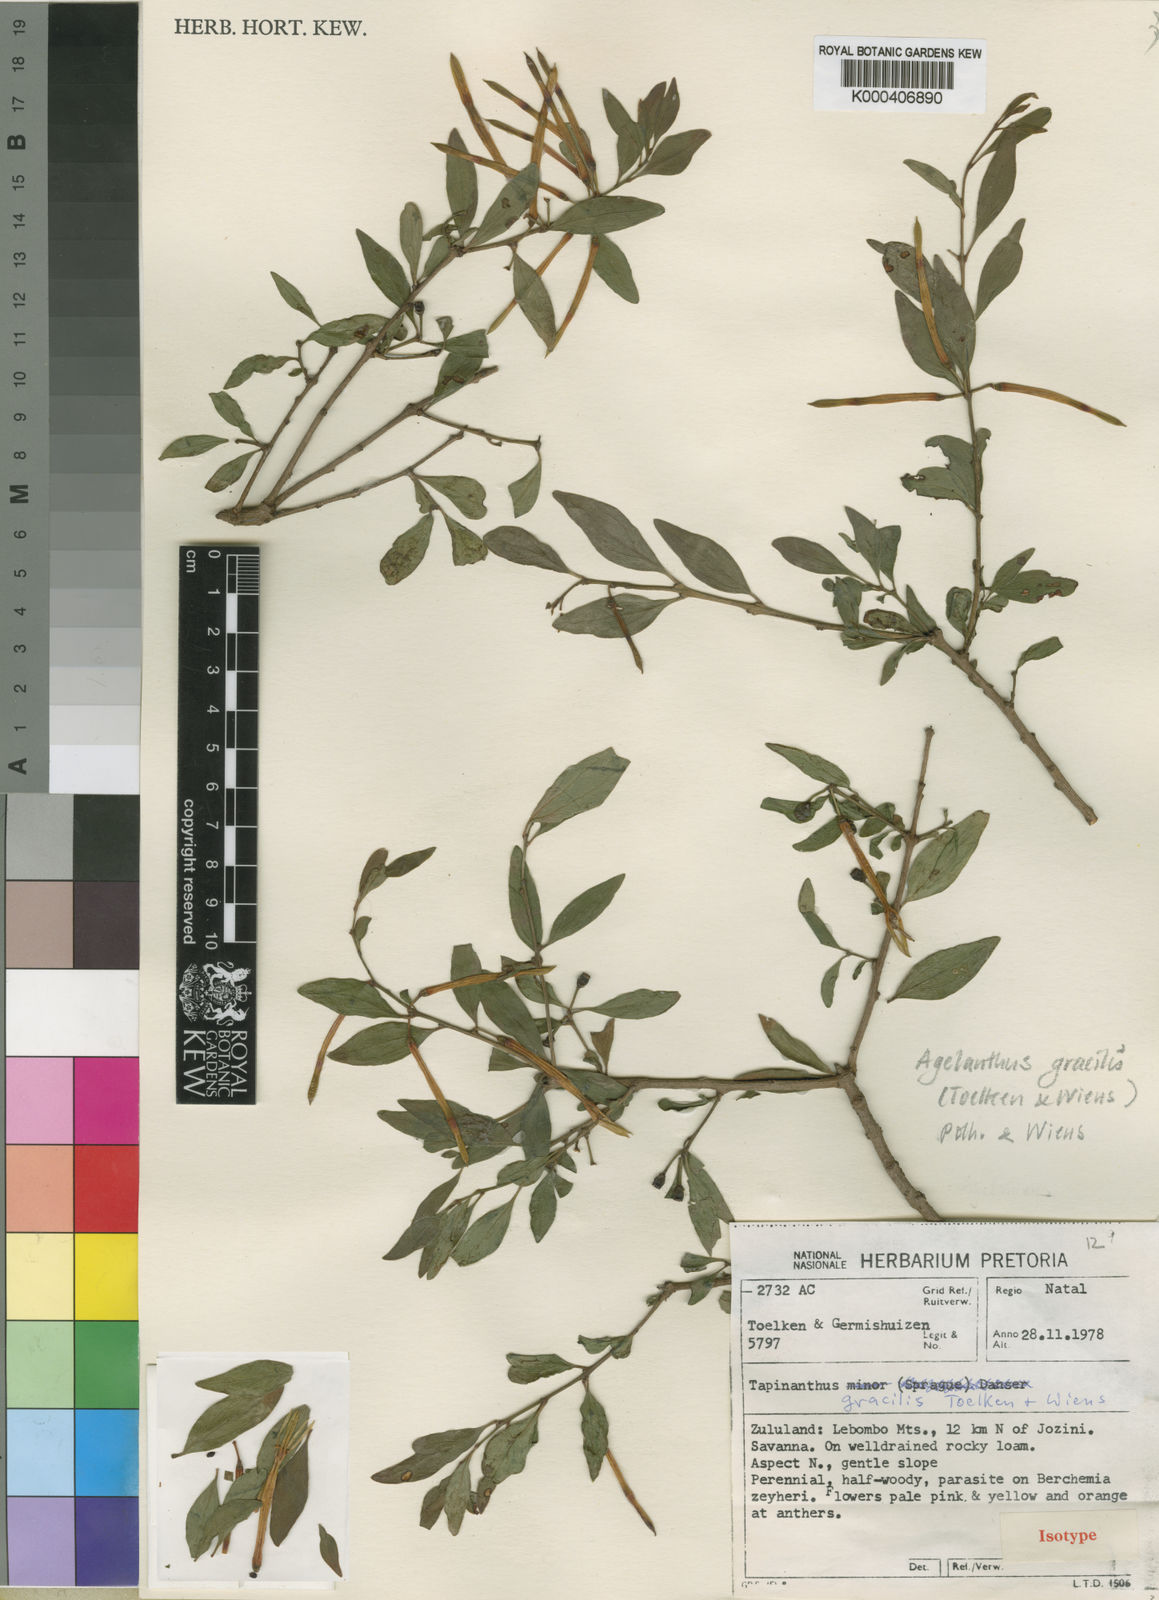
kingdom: Plantae
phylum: Tracheophyta
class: Magnoliopsida
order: Santalales
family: Loranthaceae
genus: Agelanthus
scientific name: Agelanthus gracilis
